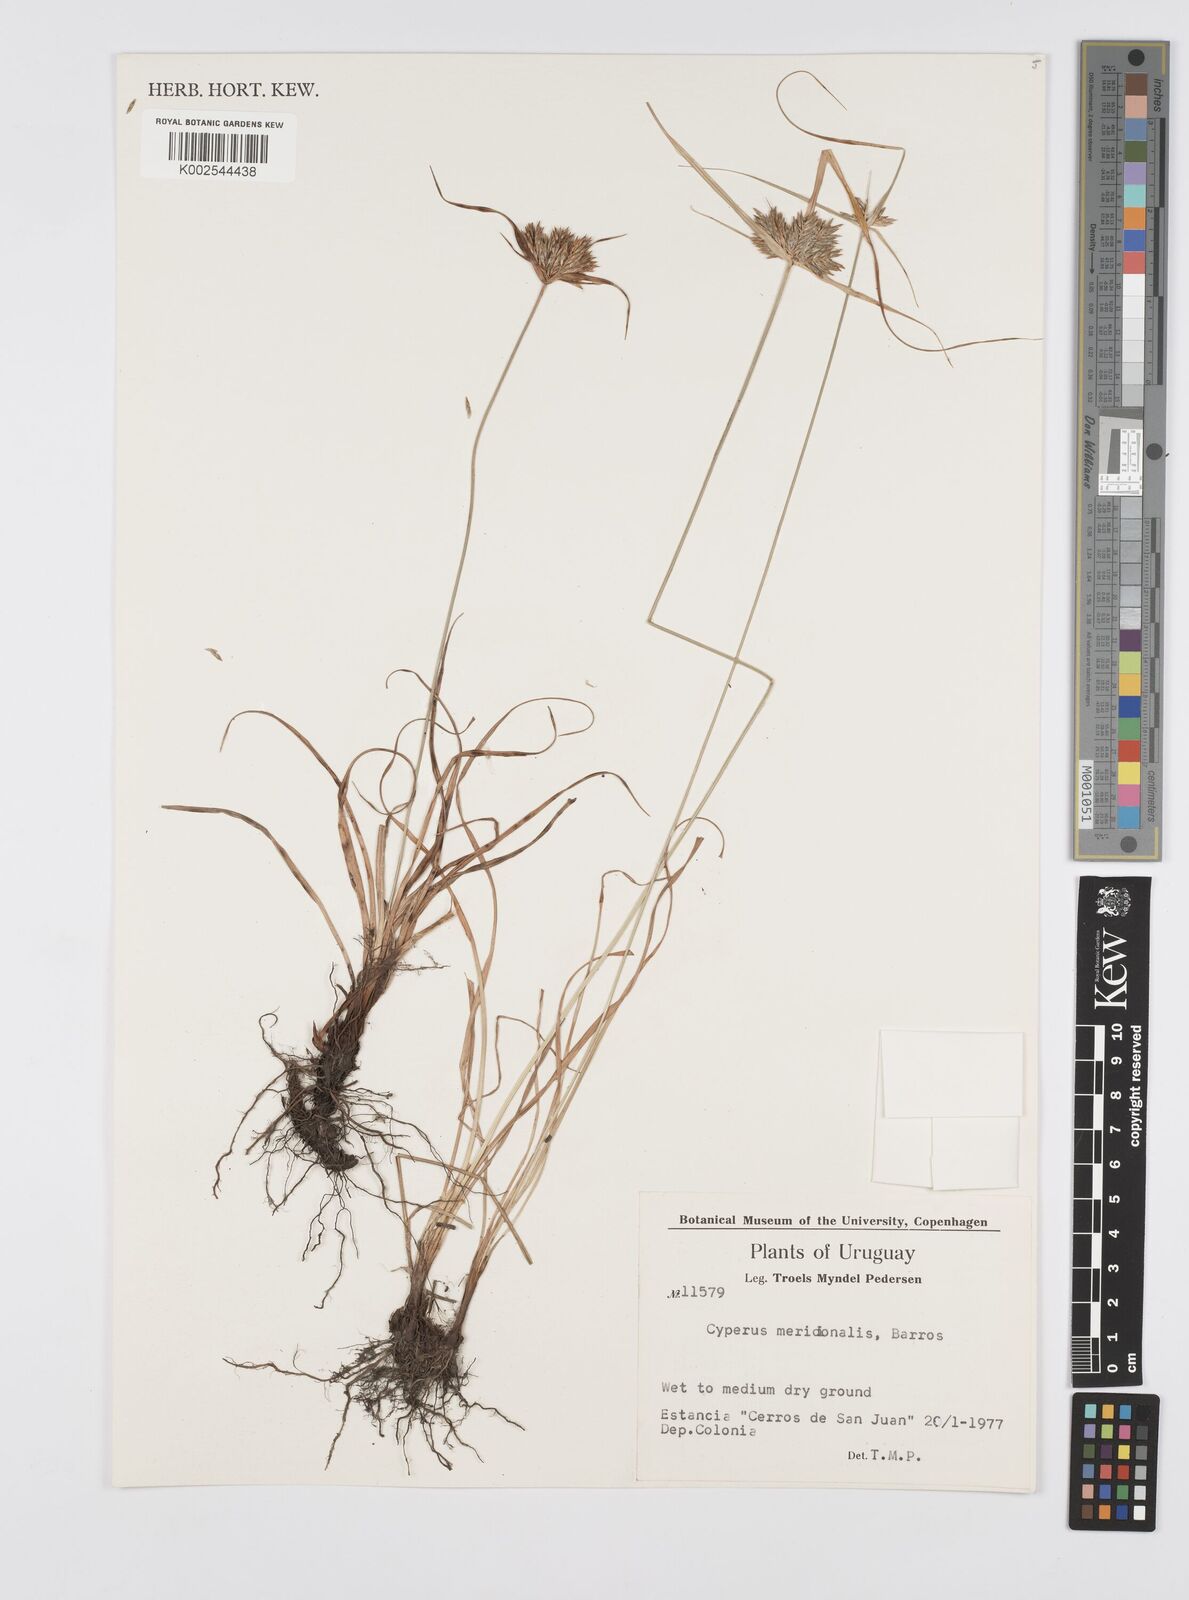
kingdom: Plantae
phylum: Tracheophyta
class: Liliopsida
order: Poales
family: Cyperaceae
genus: Cyperus
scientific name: Cyperus meridionalis
